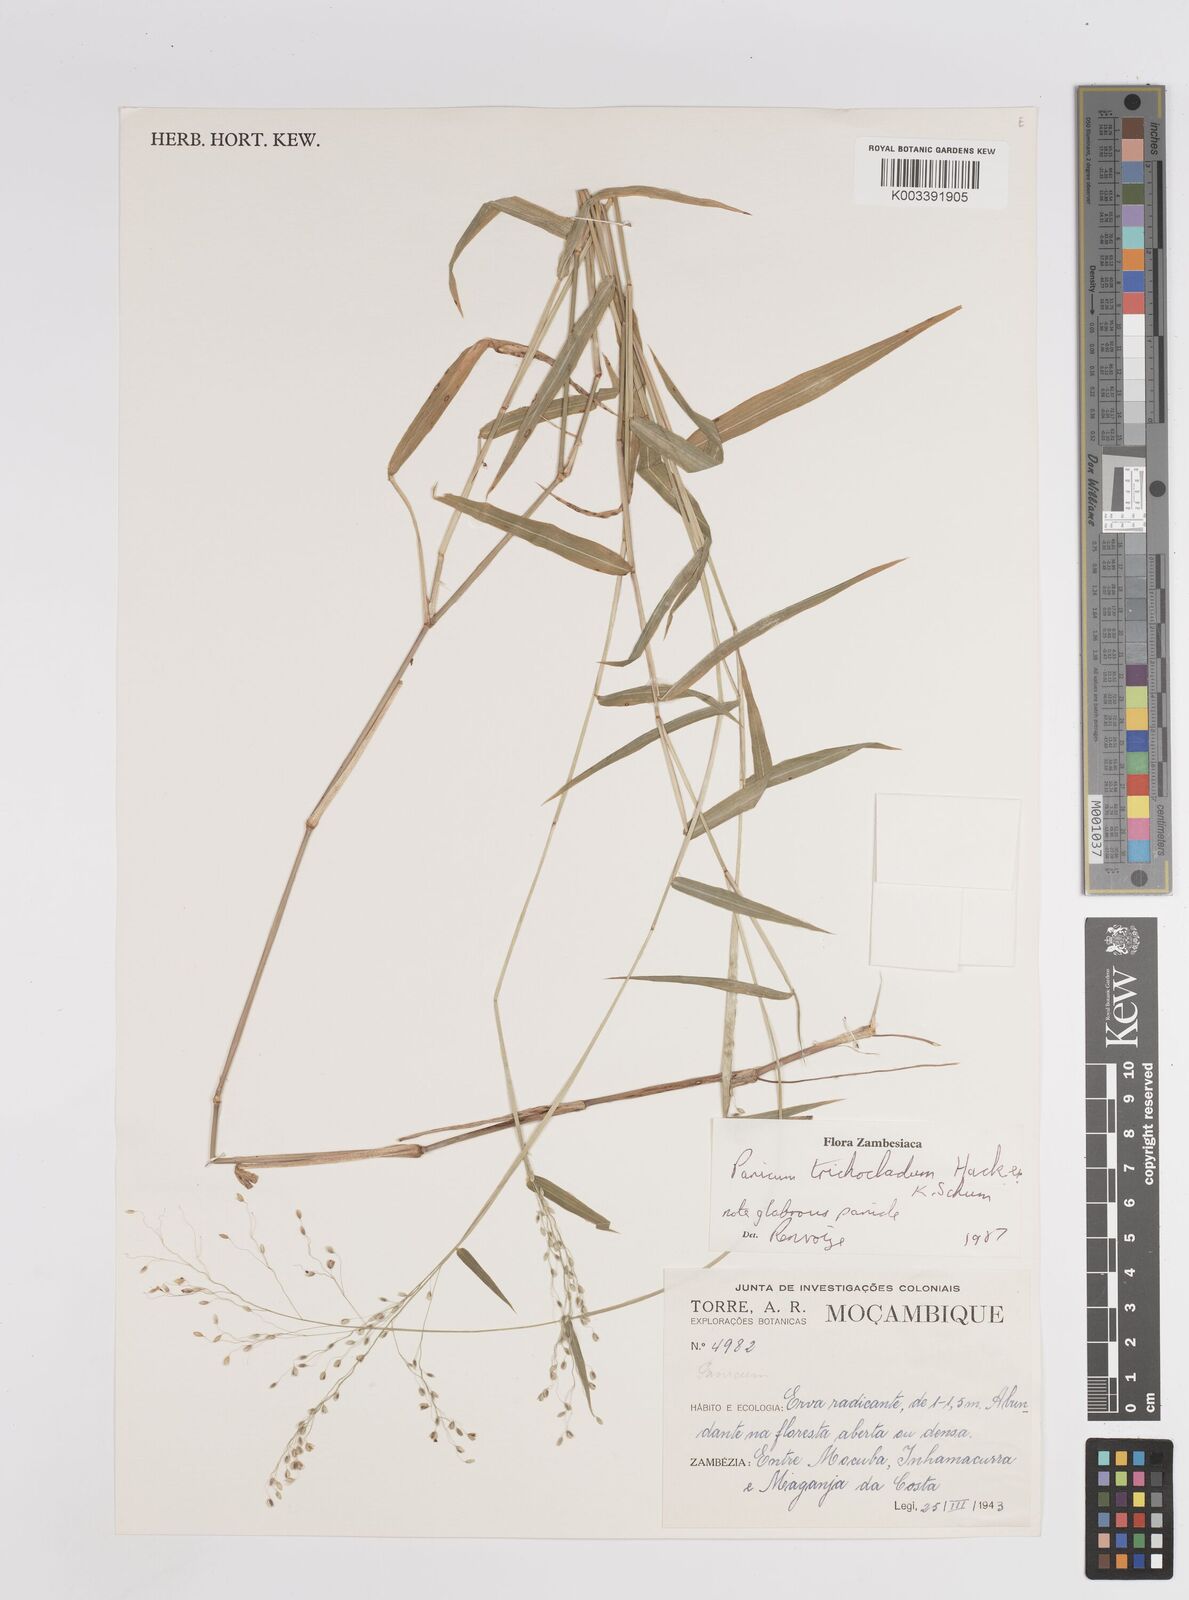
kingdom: Plantae
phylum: Tracheophyta
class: Liliopsida
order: Poales
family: Poaceae
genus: Panicum
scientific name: Panicum trichocladum
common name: Donkey grass
